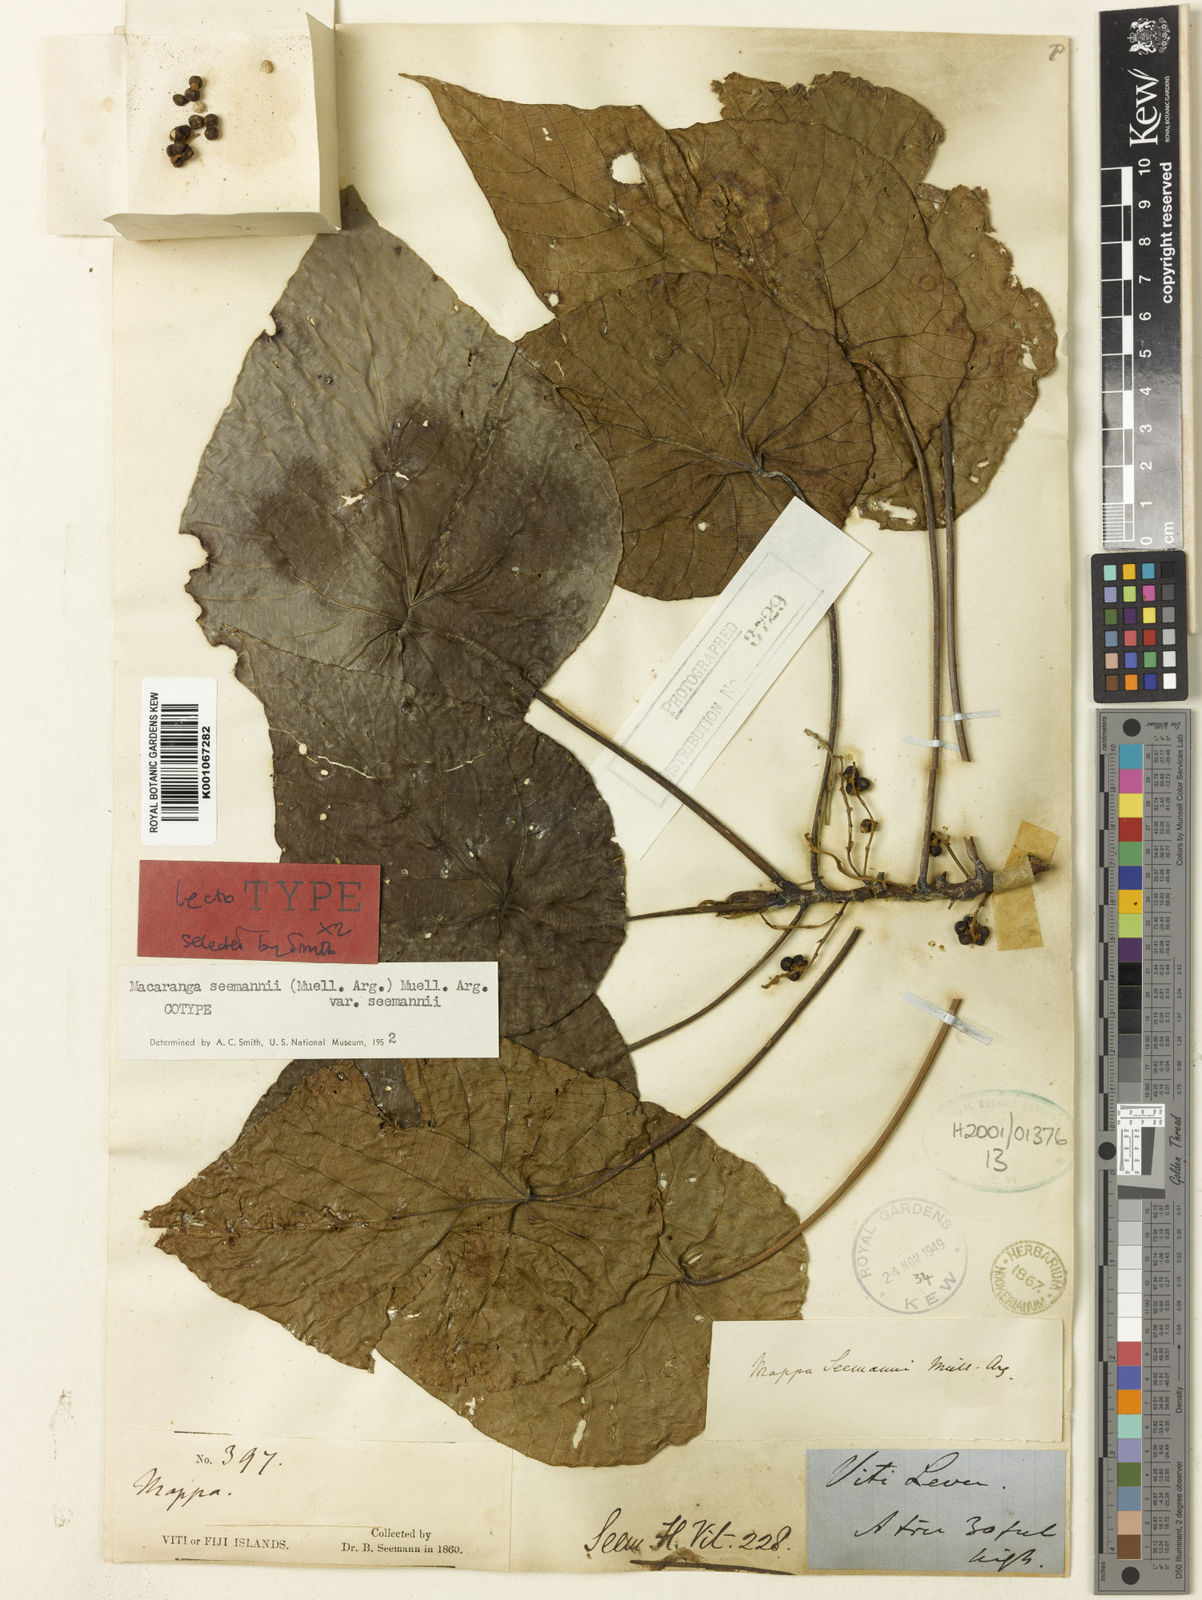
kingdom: Plantae
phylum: Tracheophyta
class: Magnoliopsida
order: Malpighiales
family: Euphorbiaceae
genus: Macaranga
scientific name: Macaranga
